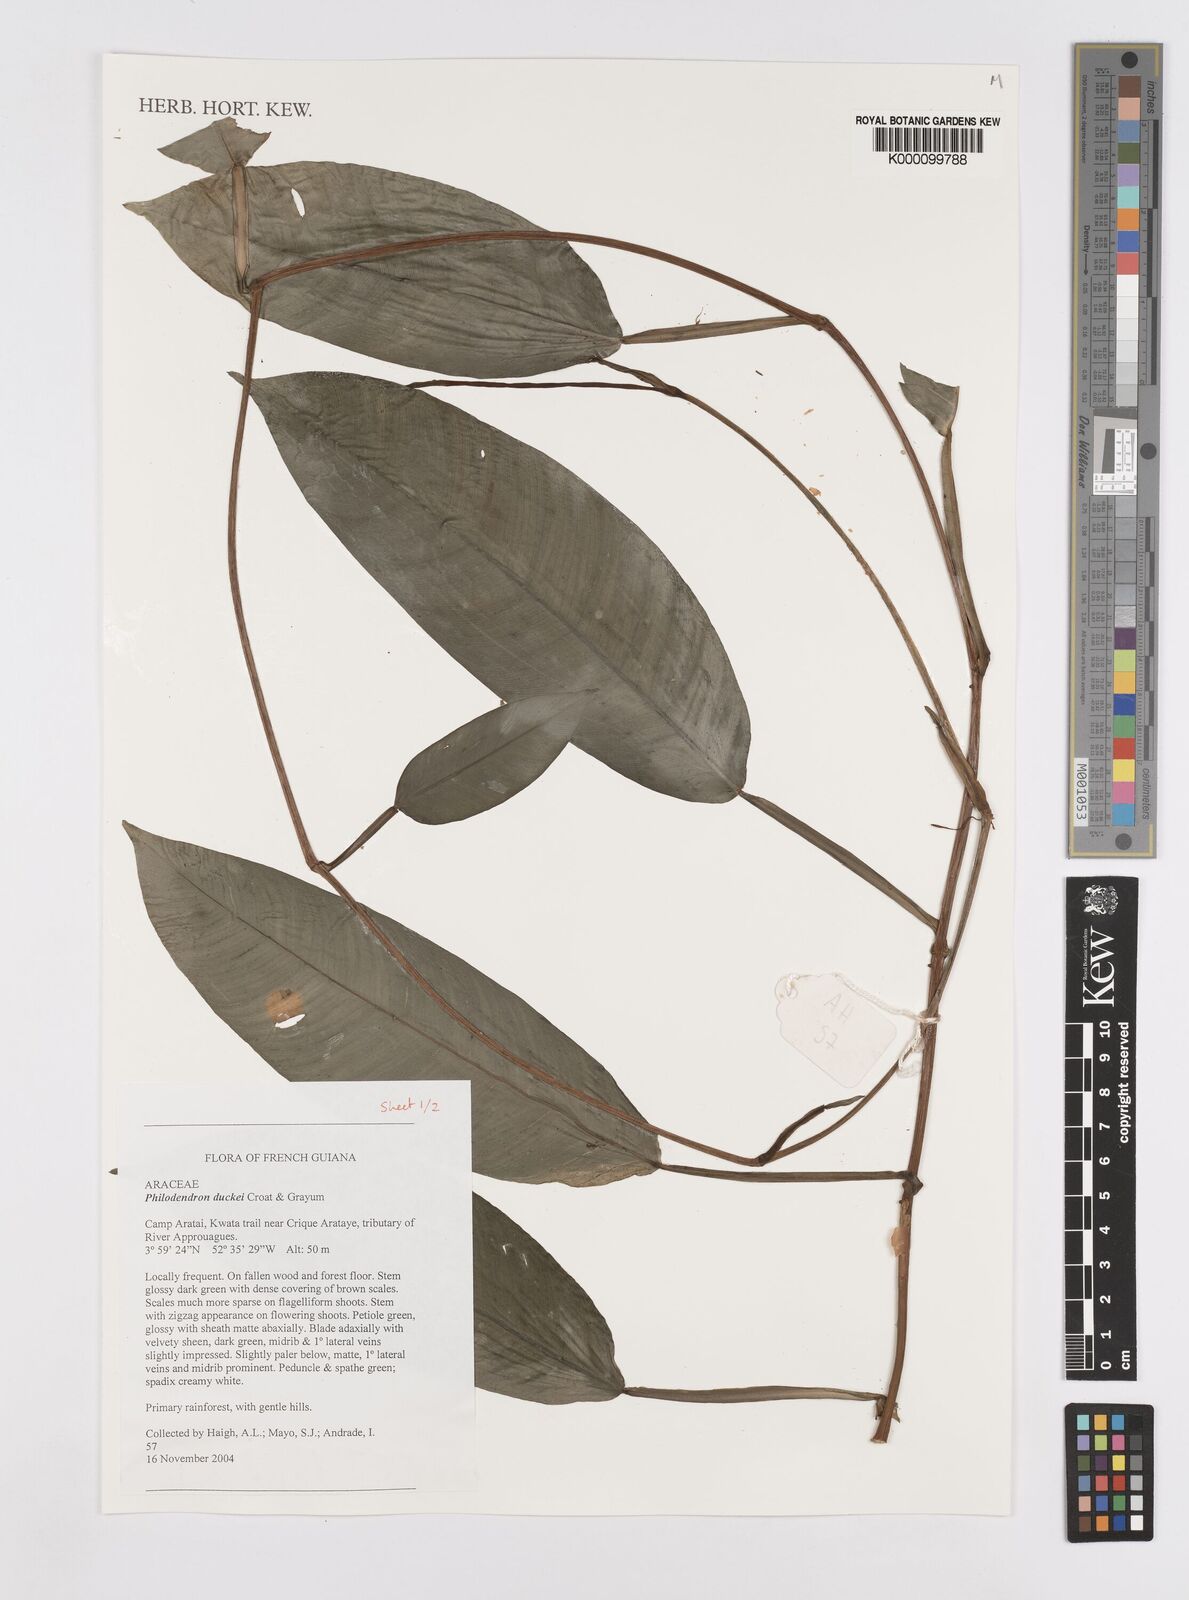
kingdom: Plantae
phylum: Tracheophyta
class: Liliopsida
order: Alismatales
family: Araceae
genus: Philodendron
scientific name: Philodendron duckei
